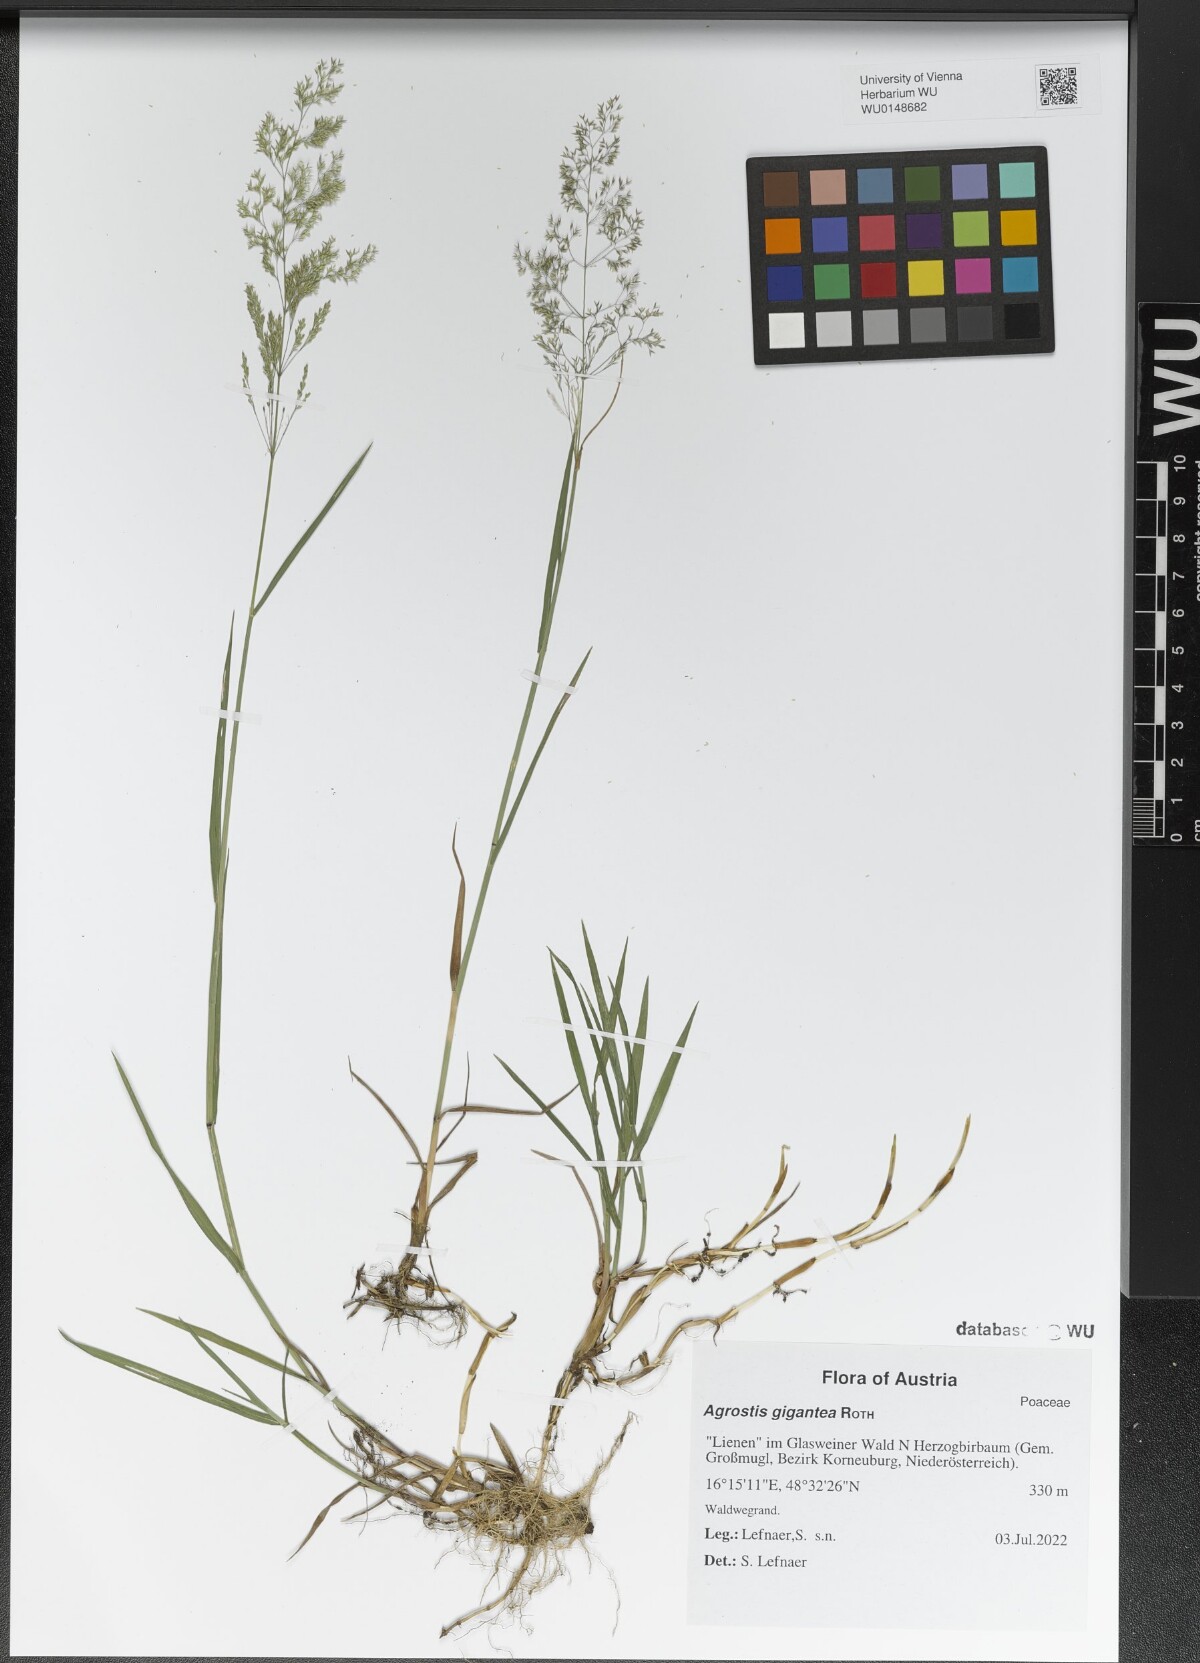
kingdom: Plantae
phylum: Tracheophyta
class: Liliopsida
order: Poales
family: Poaceae
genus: Agrostis
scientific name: Agrostis gigantea
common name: Black bent
